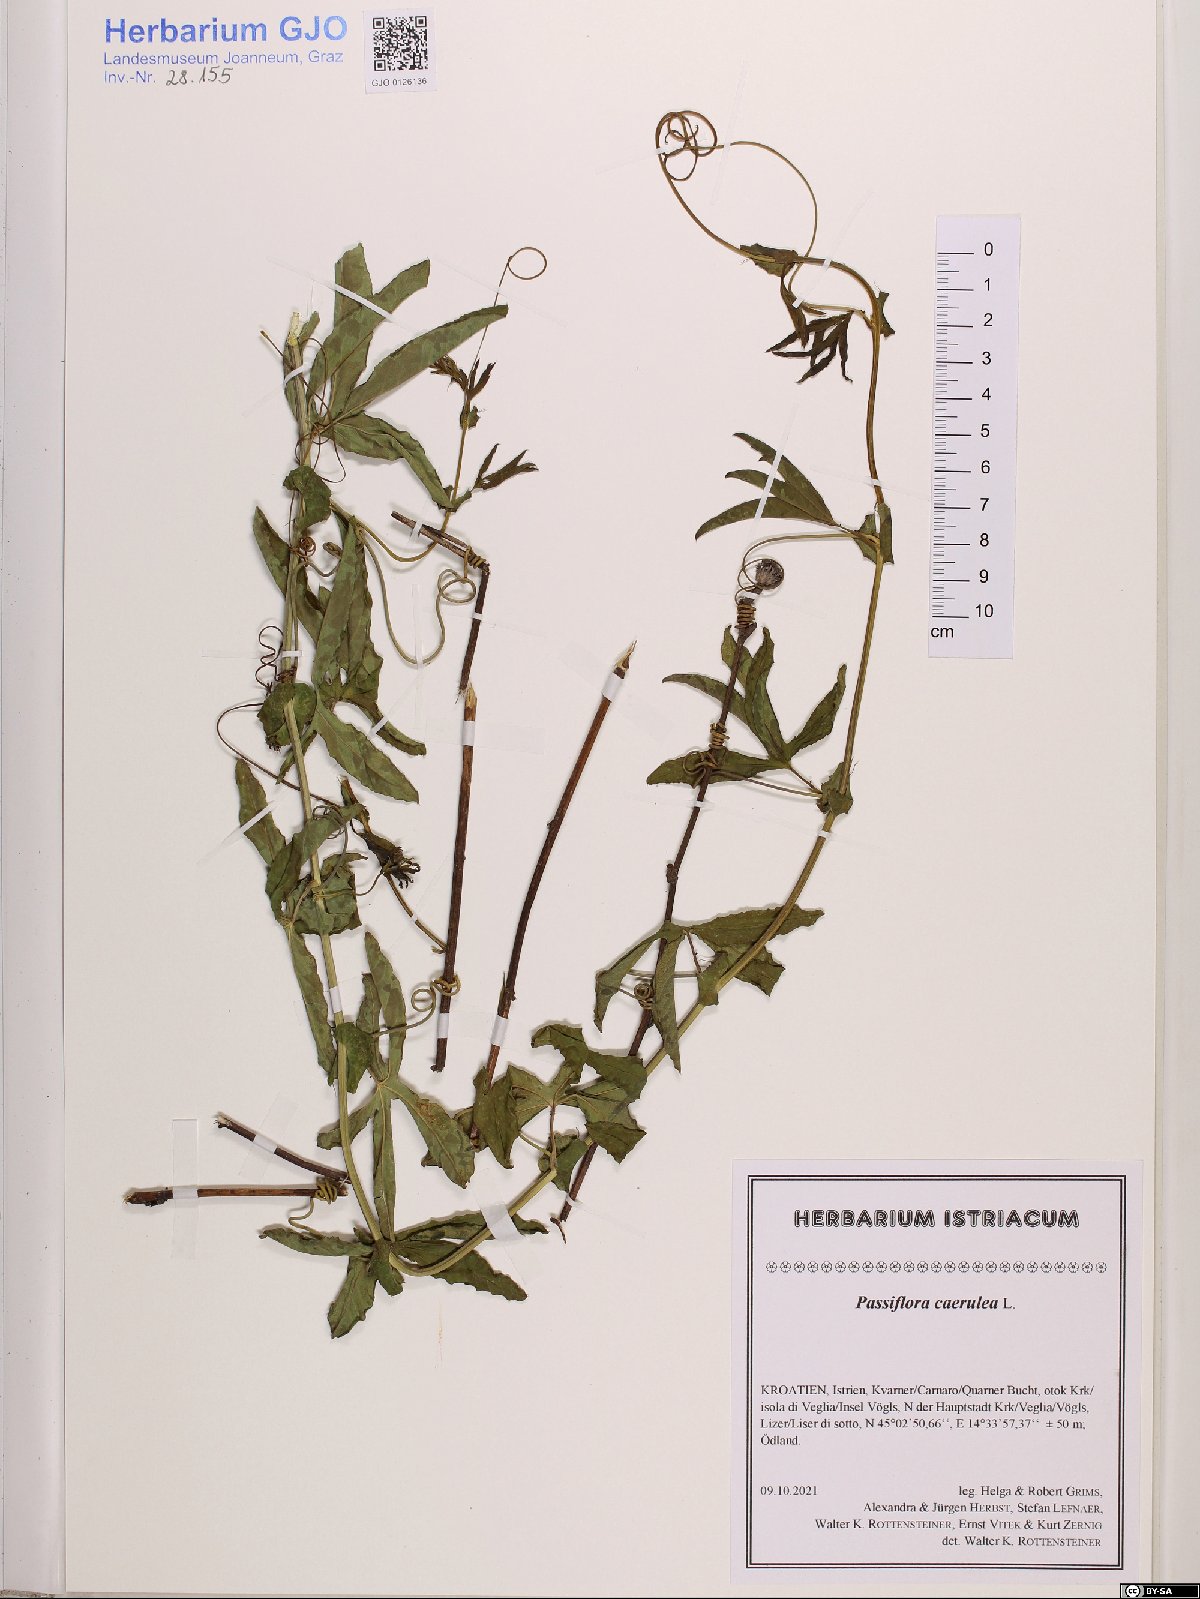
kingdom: Plantae
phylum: Tracheophyta
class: Magnoliopsida
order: Malpighiales
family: Passifloraceae
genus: Passiflora
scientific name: Passiflora caerulea
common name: Blue passionflower
